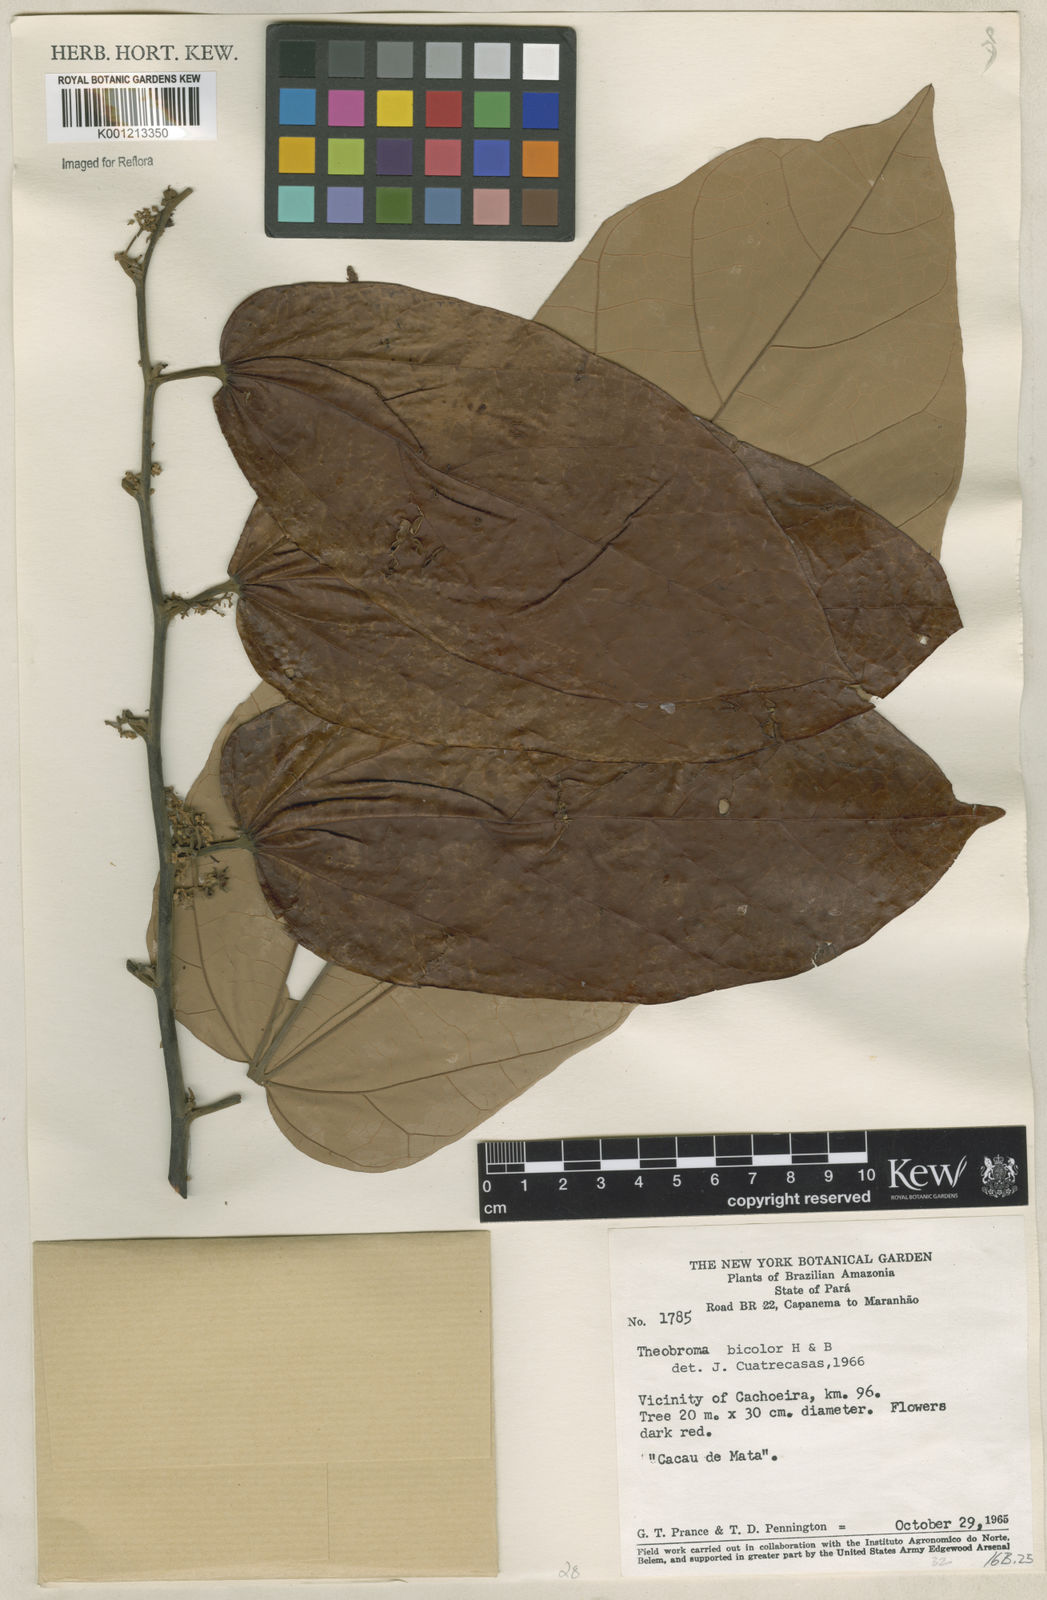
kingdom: Plantae
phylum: Tracheophyta
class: Magnoliopsida
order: Malvales
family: Malvaceae
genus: Theobroma
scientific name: Theobroma
